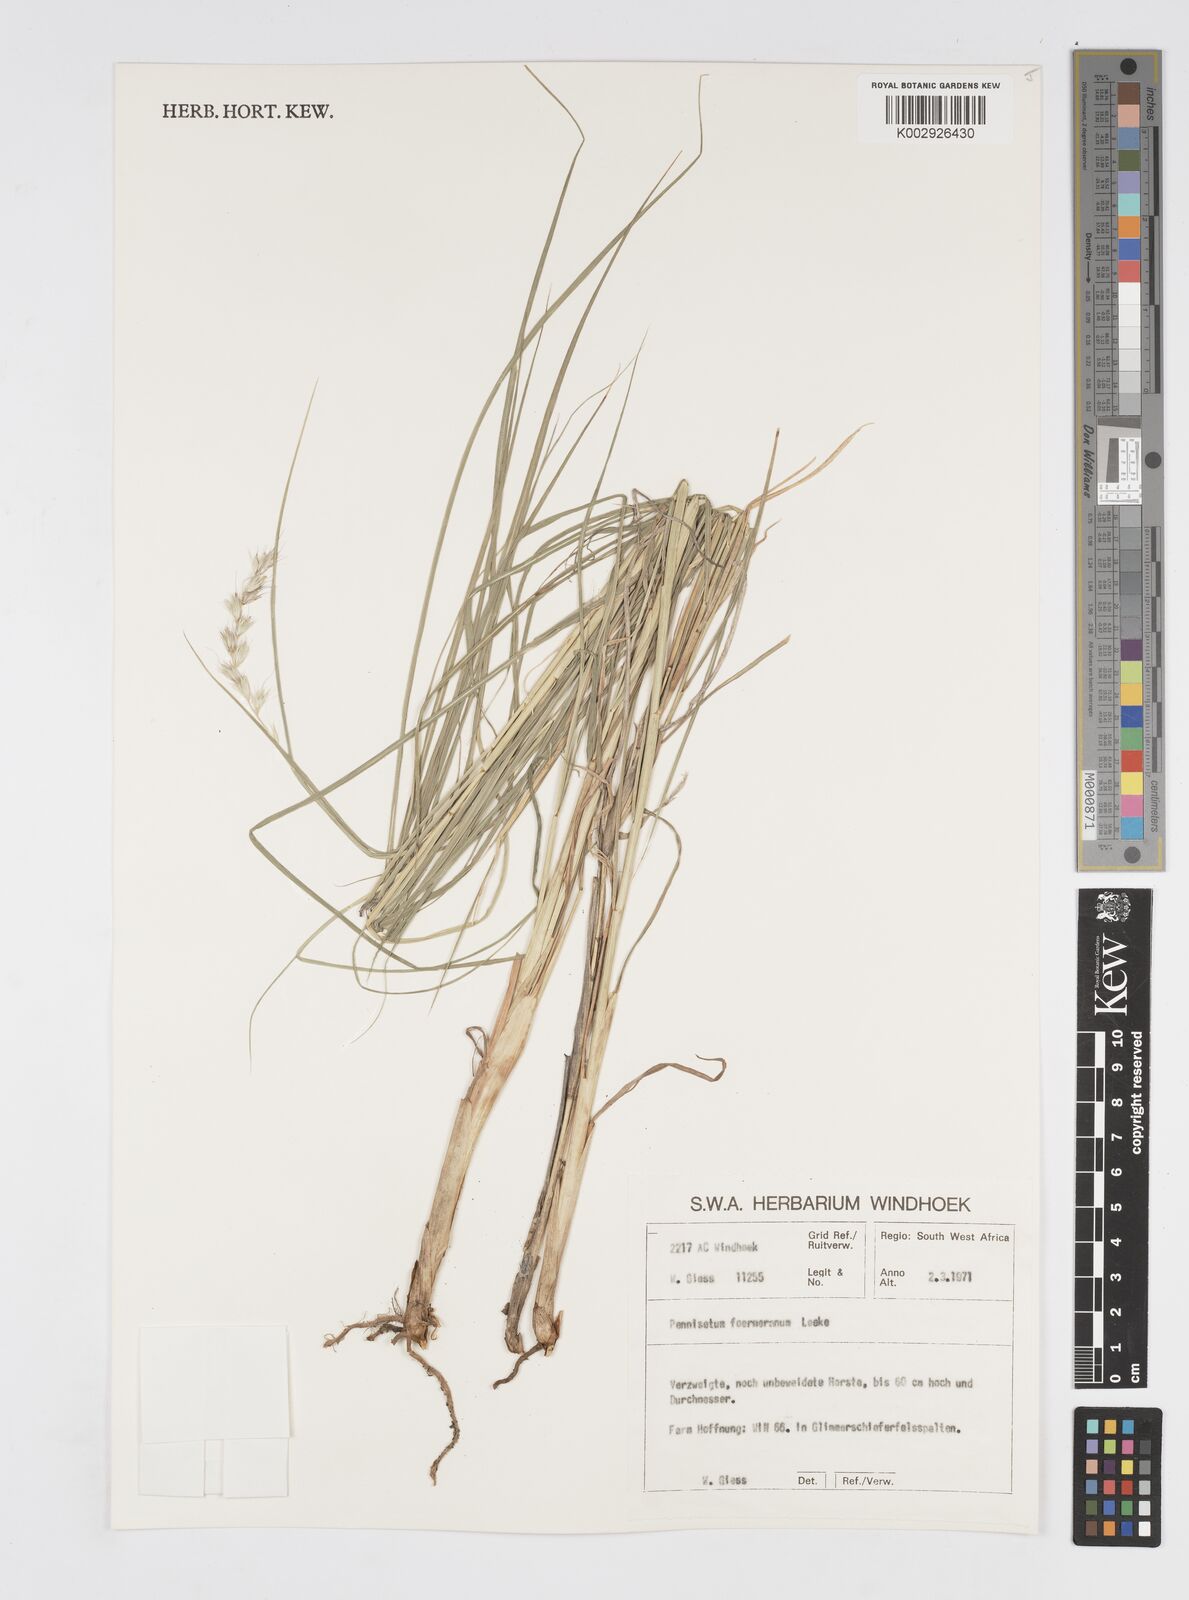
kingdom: Plantae
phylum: Tracheophyta
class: Liliopsida
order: Poales
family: Poaceae
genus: Cenchrus
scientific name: Cenchrus foermerianus
